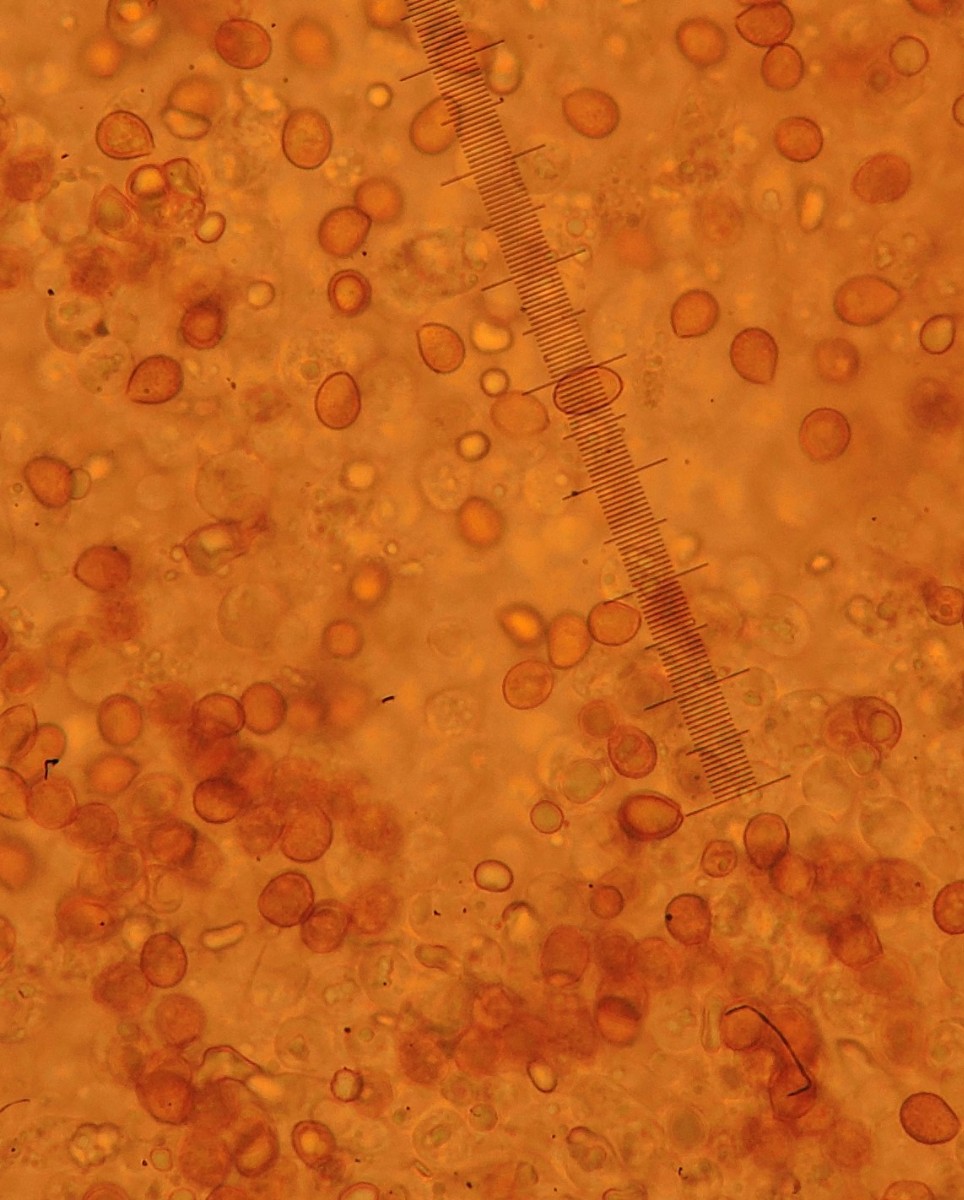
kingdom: Fungi
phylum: Basidiomycota
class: Agaricomycetes
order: Agaricales
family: Cortinariaceae
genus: Cortinarius
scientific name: Cortinarius illibatus
